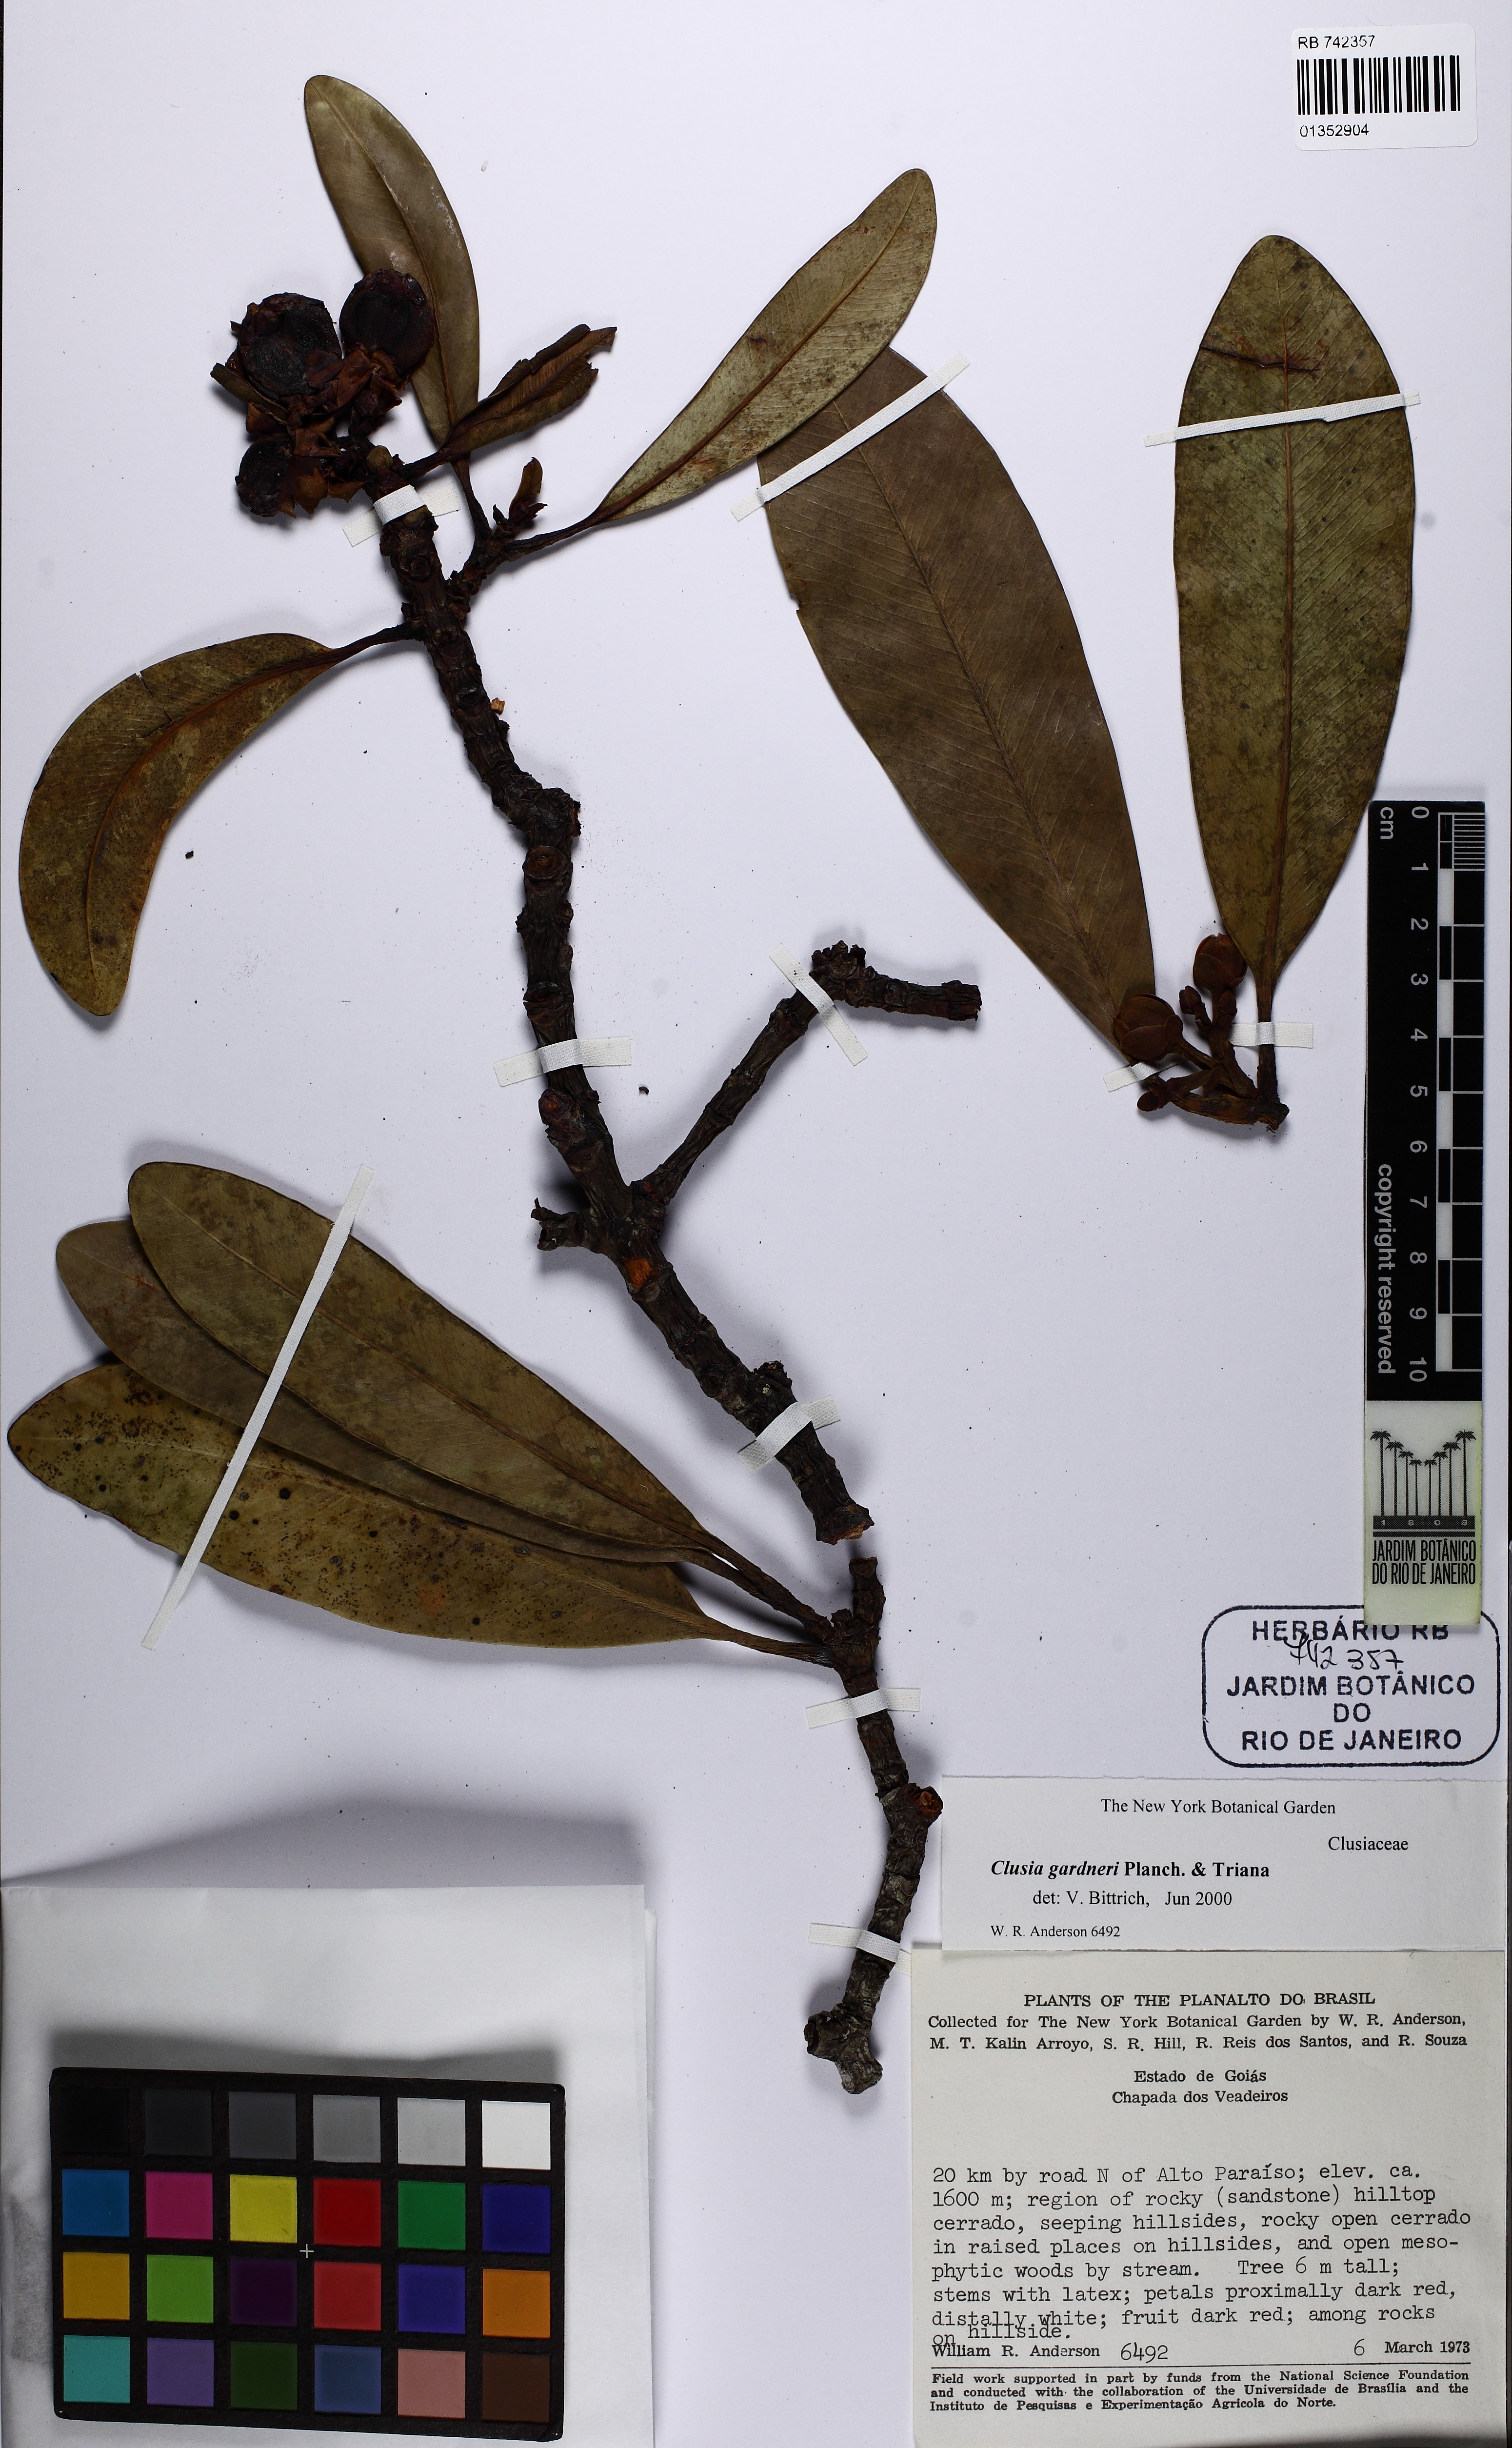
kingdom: Plantae
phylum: Tracheophyta
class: Magnoliopsida
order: Malpighiales
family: Clusiaceae
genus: Clusia
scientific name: Clusia gardneri
